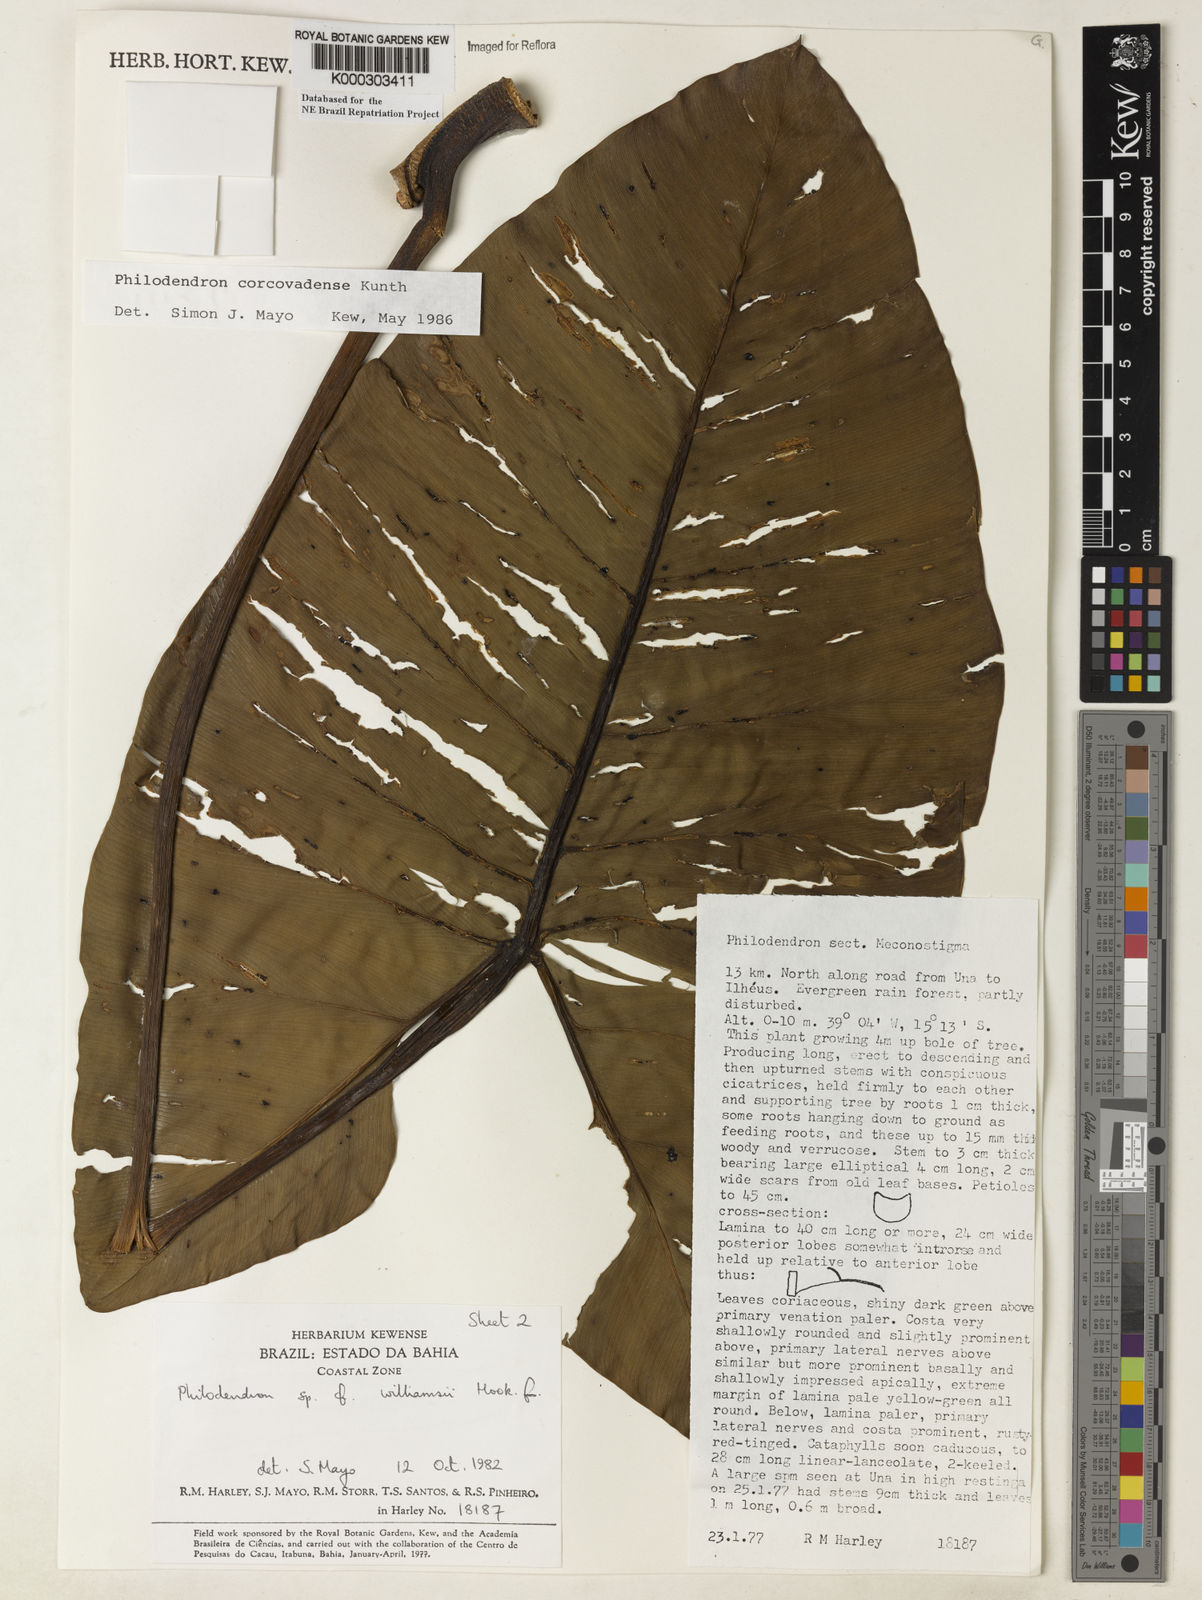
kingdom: Plantae
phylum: Tracheophyta
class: Liliopsida
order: Alismatales
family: Araceae
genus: Thaumatophyllum
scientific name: Thaumatophyllum corcovadense
